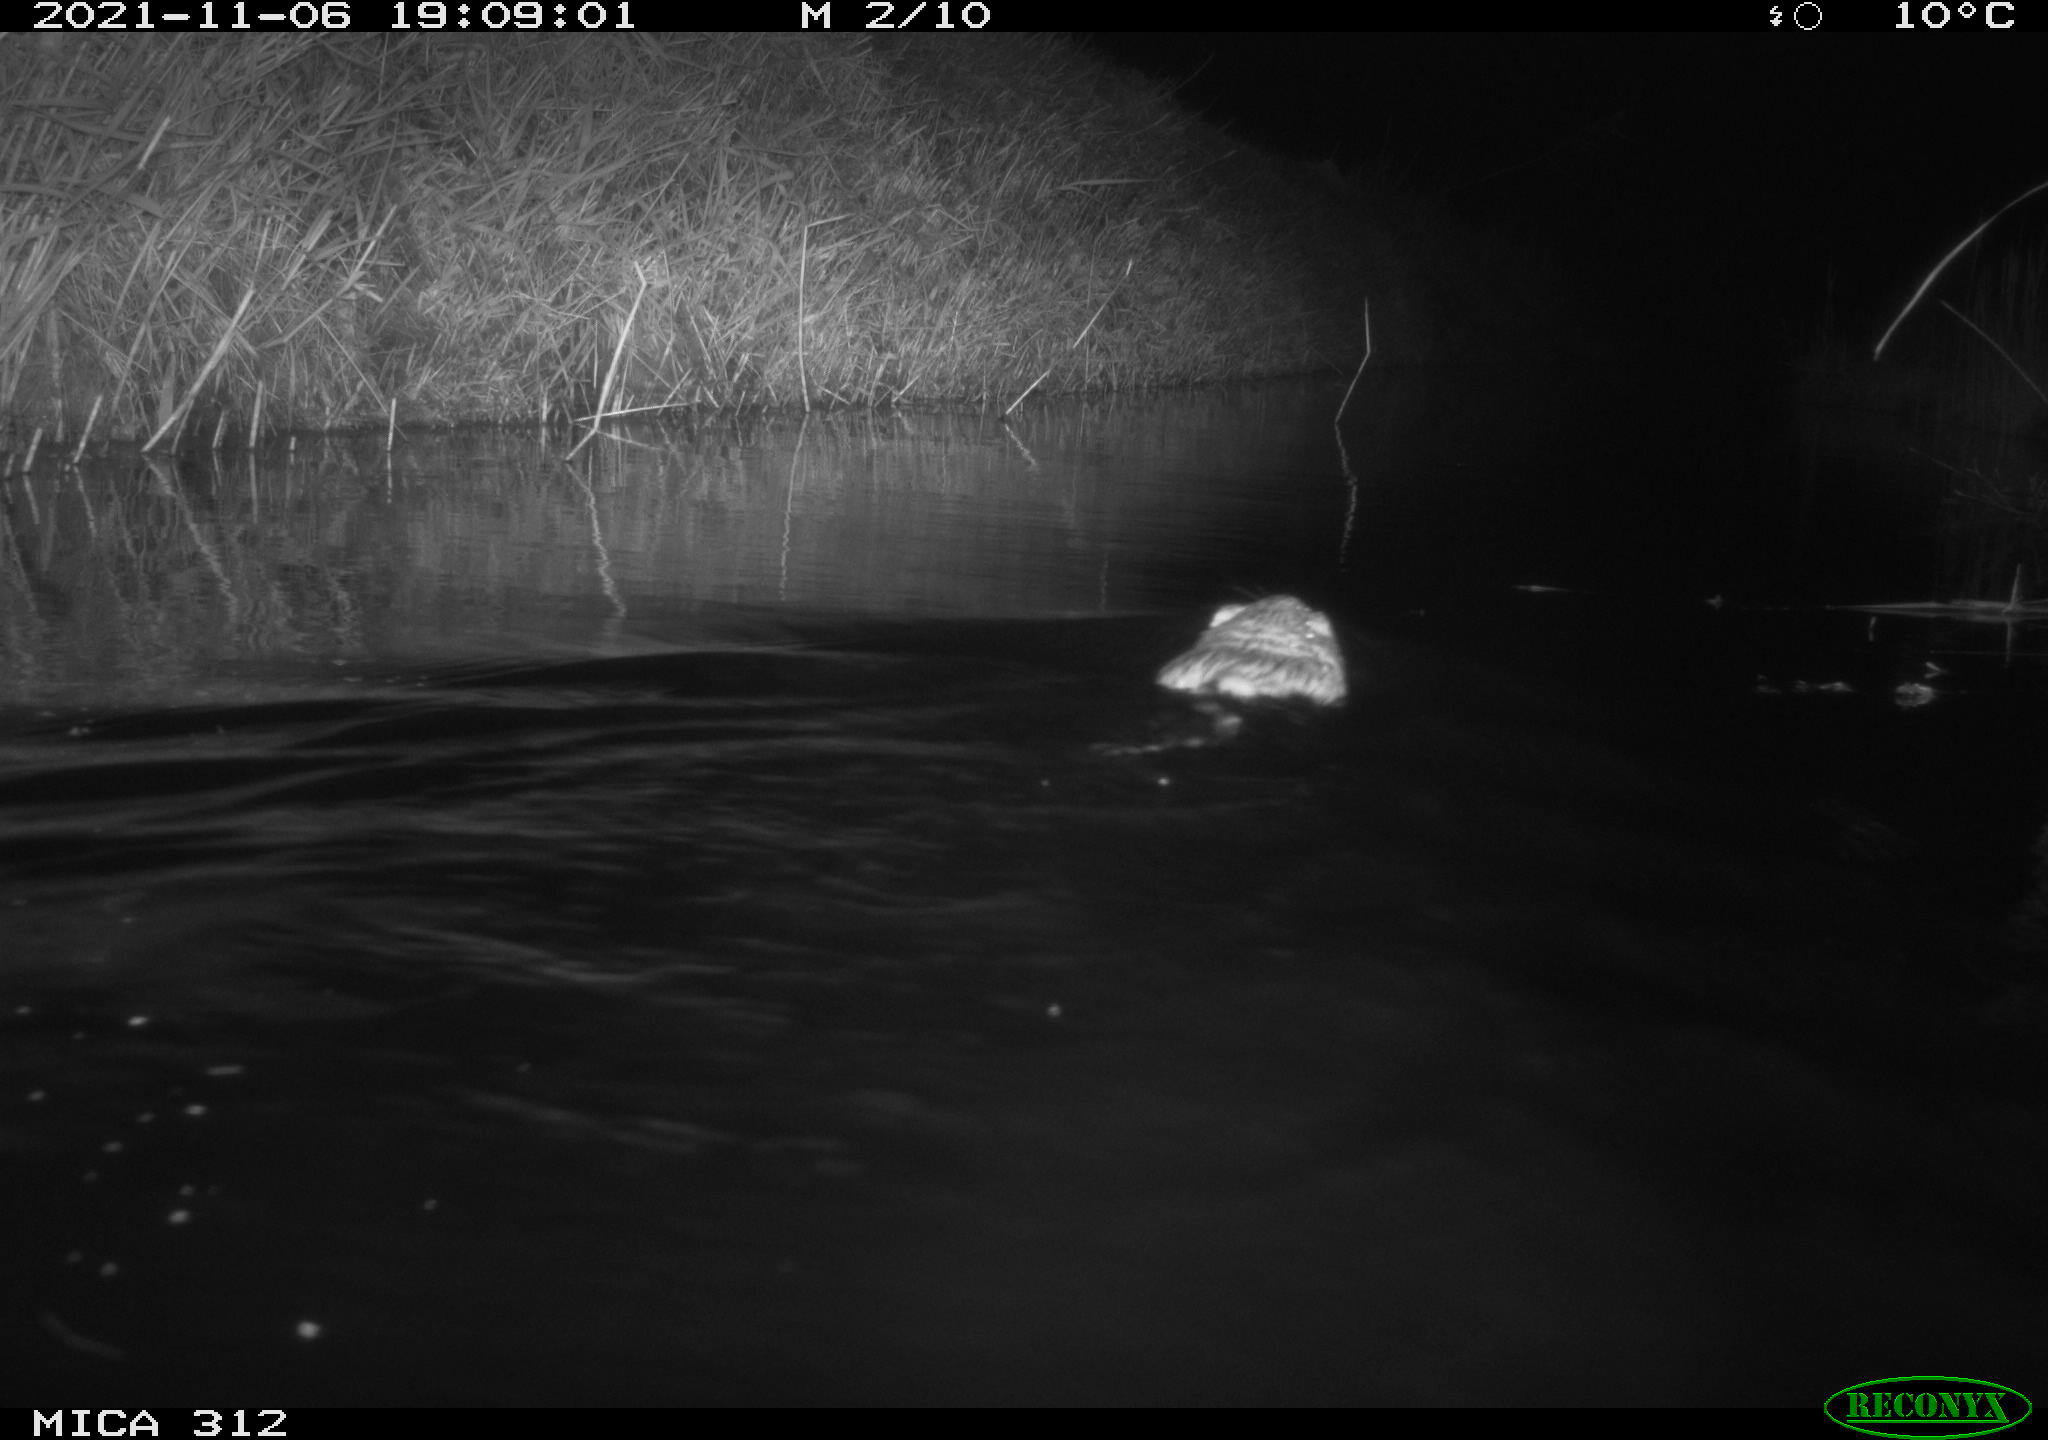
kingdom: Animalia
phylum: Chordata
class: Mammalia
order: Rodentia
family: Cricetidae
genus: Ondatra
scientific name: Ondatra zibethicus
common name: Muskrat
